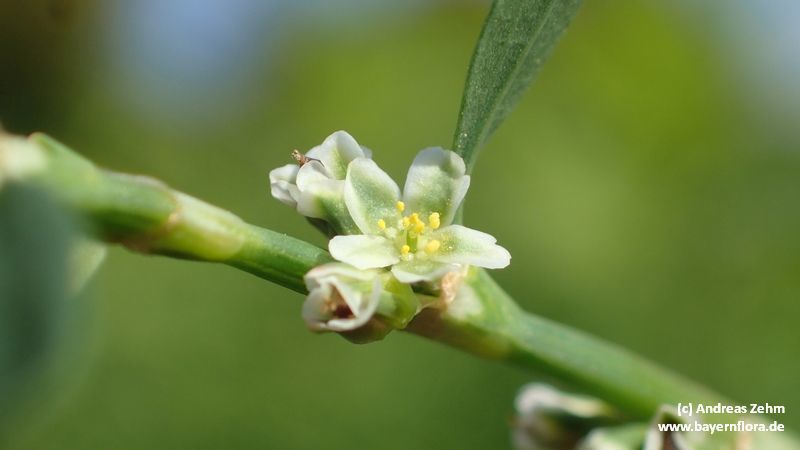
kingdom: Plantae
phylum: Tracheophyta
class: Magnoliopsida
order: Caryophyllales
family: Polygonaceae
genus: Polygonum
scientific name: Polygonum aviculare
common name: Prostrate knotweed
